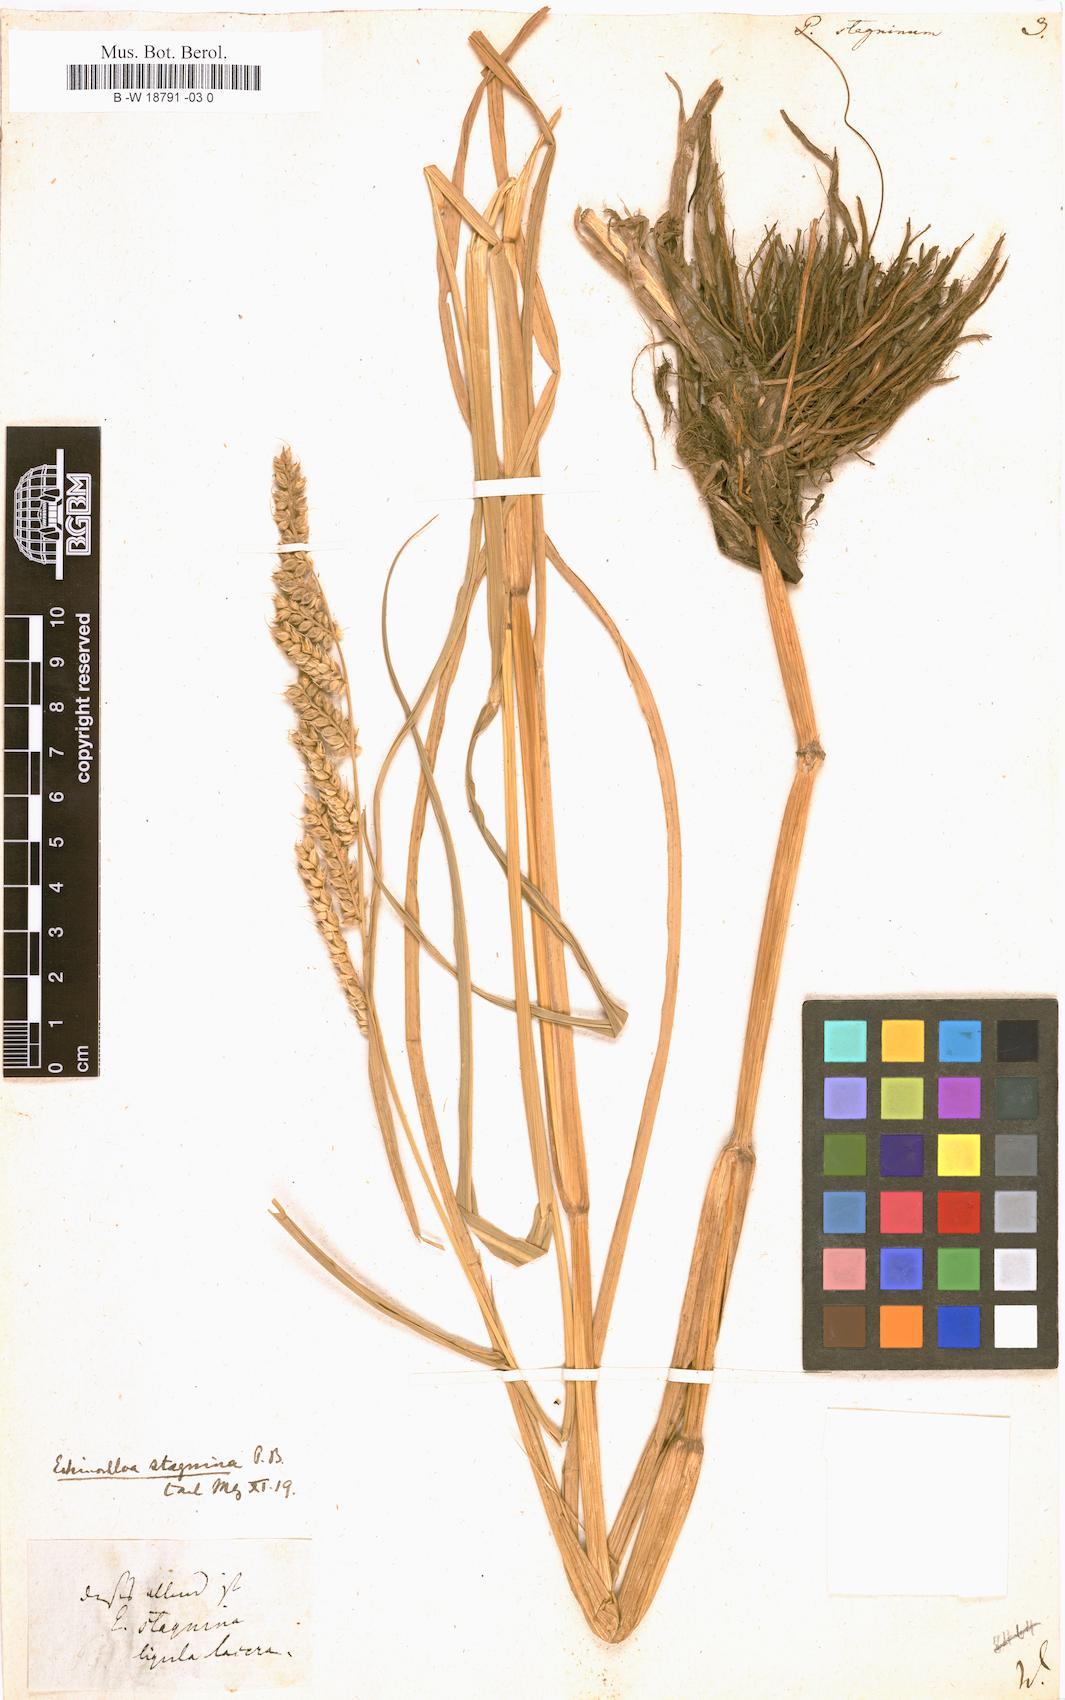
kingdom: Plantae
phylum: Tracheophyta
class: Liliopsida
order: Poales
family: Poaceae
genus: Echinochloa
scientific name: Echinochloa stagnina
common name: Burgu grass
